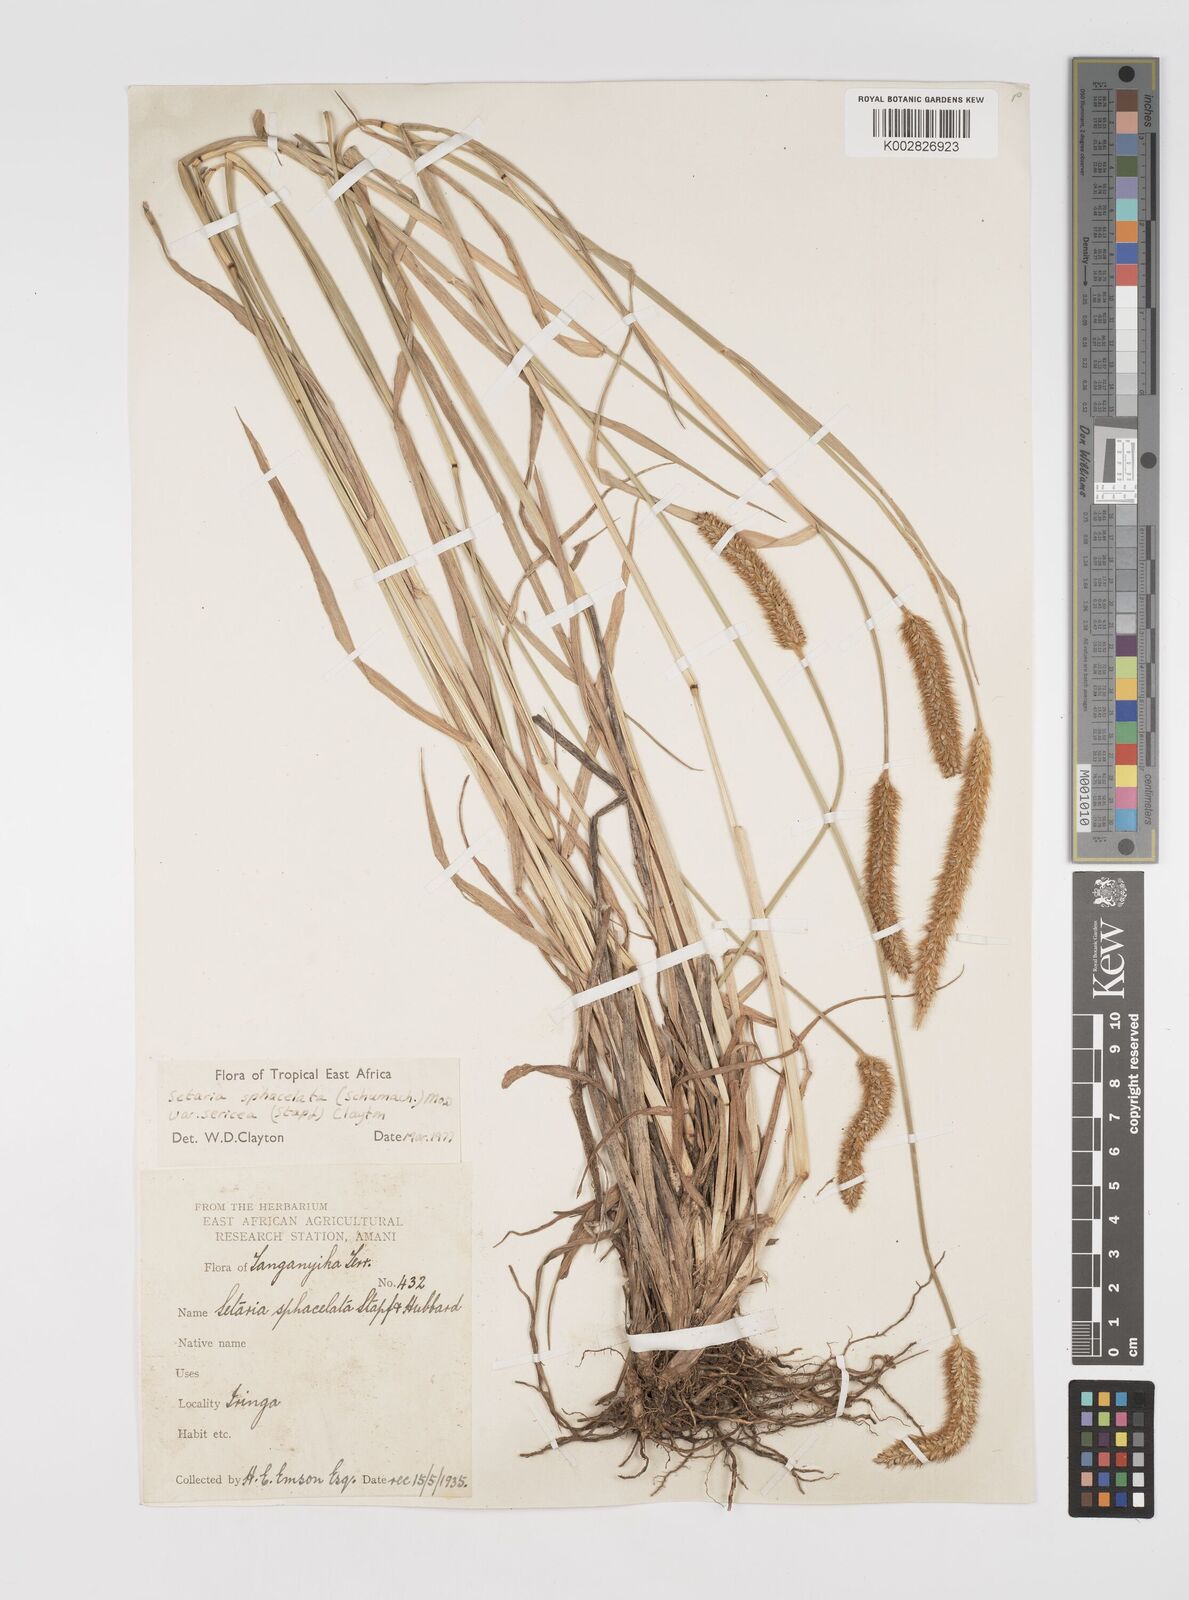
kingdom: Plantae
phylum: Tracheophyta
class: Liliopsida
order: Poales
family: Poaceae
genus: Setaria
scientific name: Setaria sphacelata
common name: African bristlegrass
